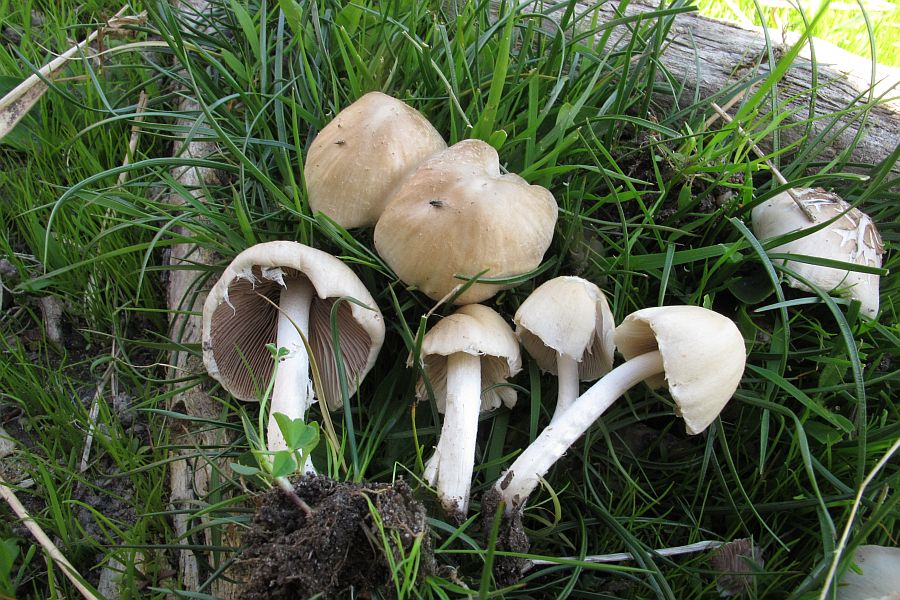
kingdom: Fungi
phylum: Basidiomycota
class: Agaricomycetes
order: Agaricales
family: Psathyrellaceae
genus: Candolleomyces
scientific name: Candolleomyces candolleanus
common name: Candolles mørkhat
